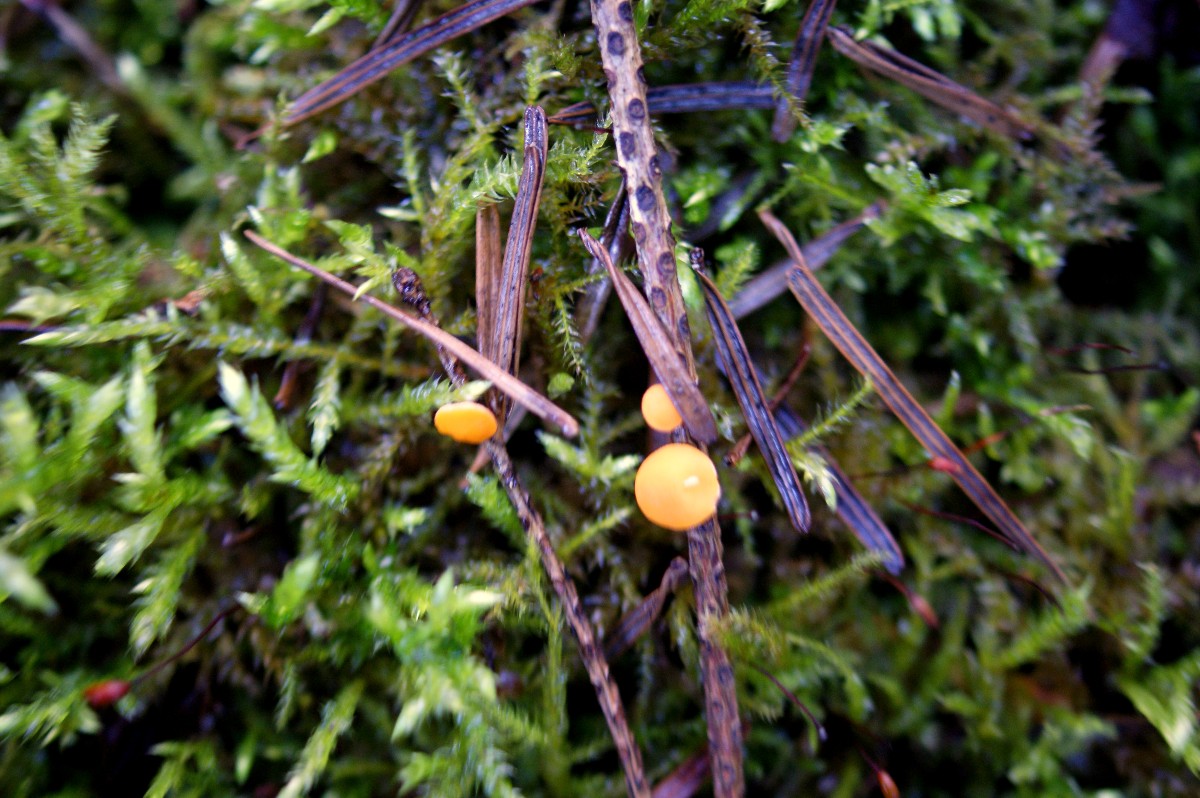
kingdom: Fungi
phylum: Ascomycota
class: Pezizomycetes
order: Pezizales
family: Sarcoscyphaceae
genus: Pithya
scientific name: Pithya vulgaris
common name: stor dukatbæger
